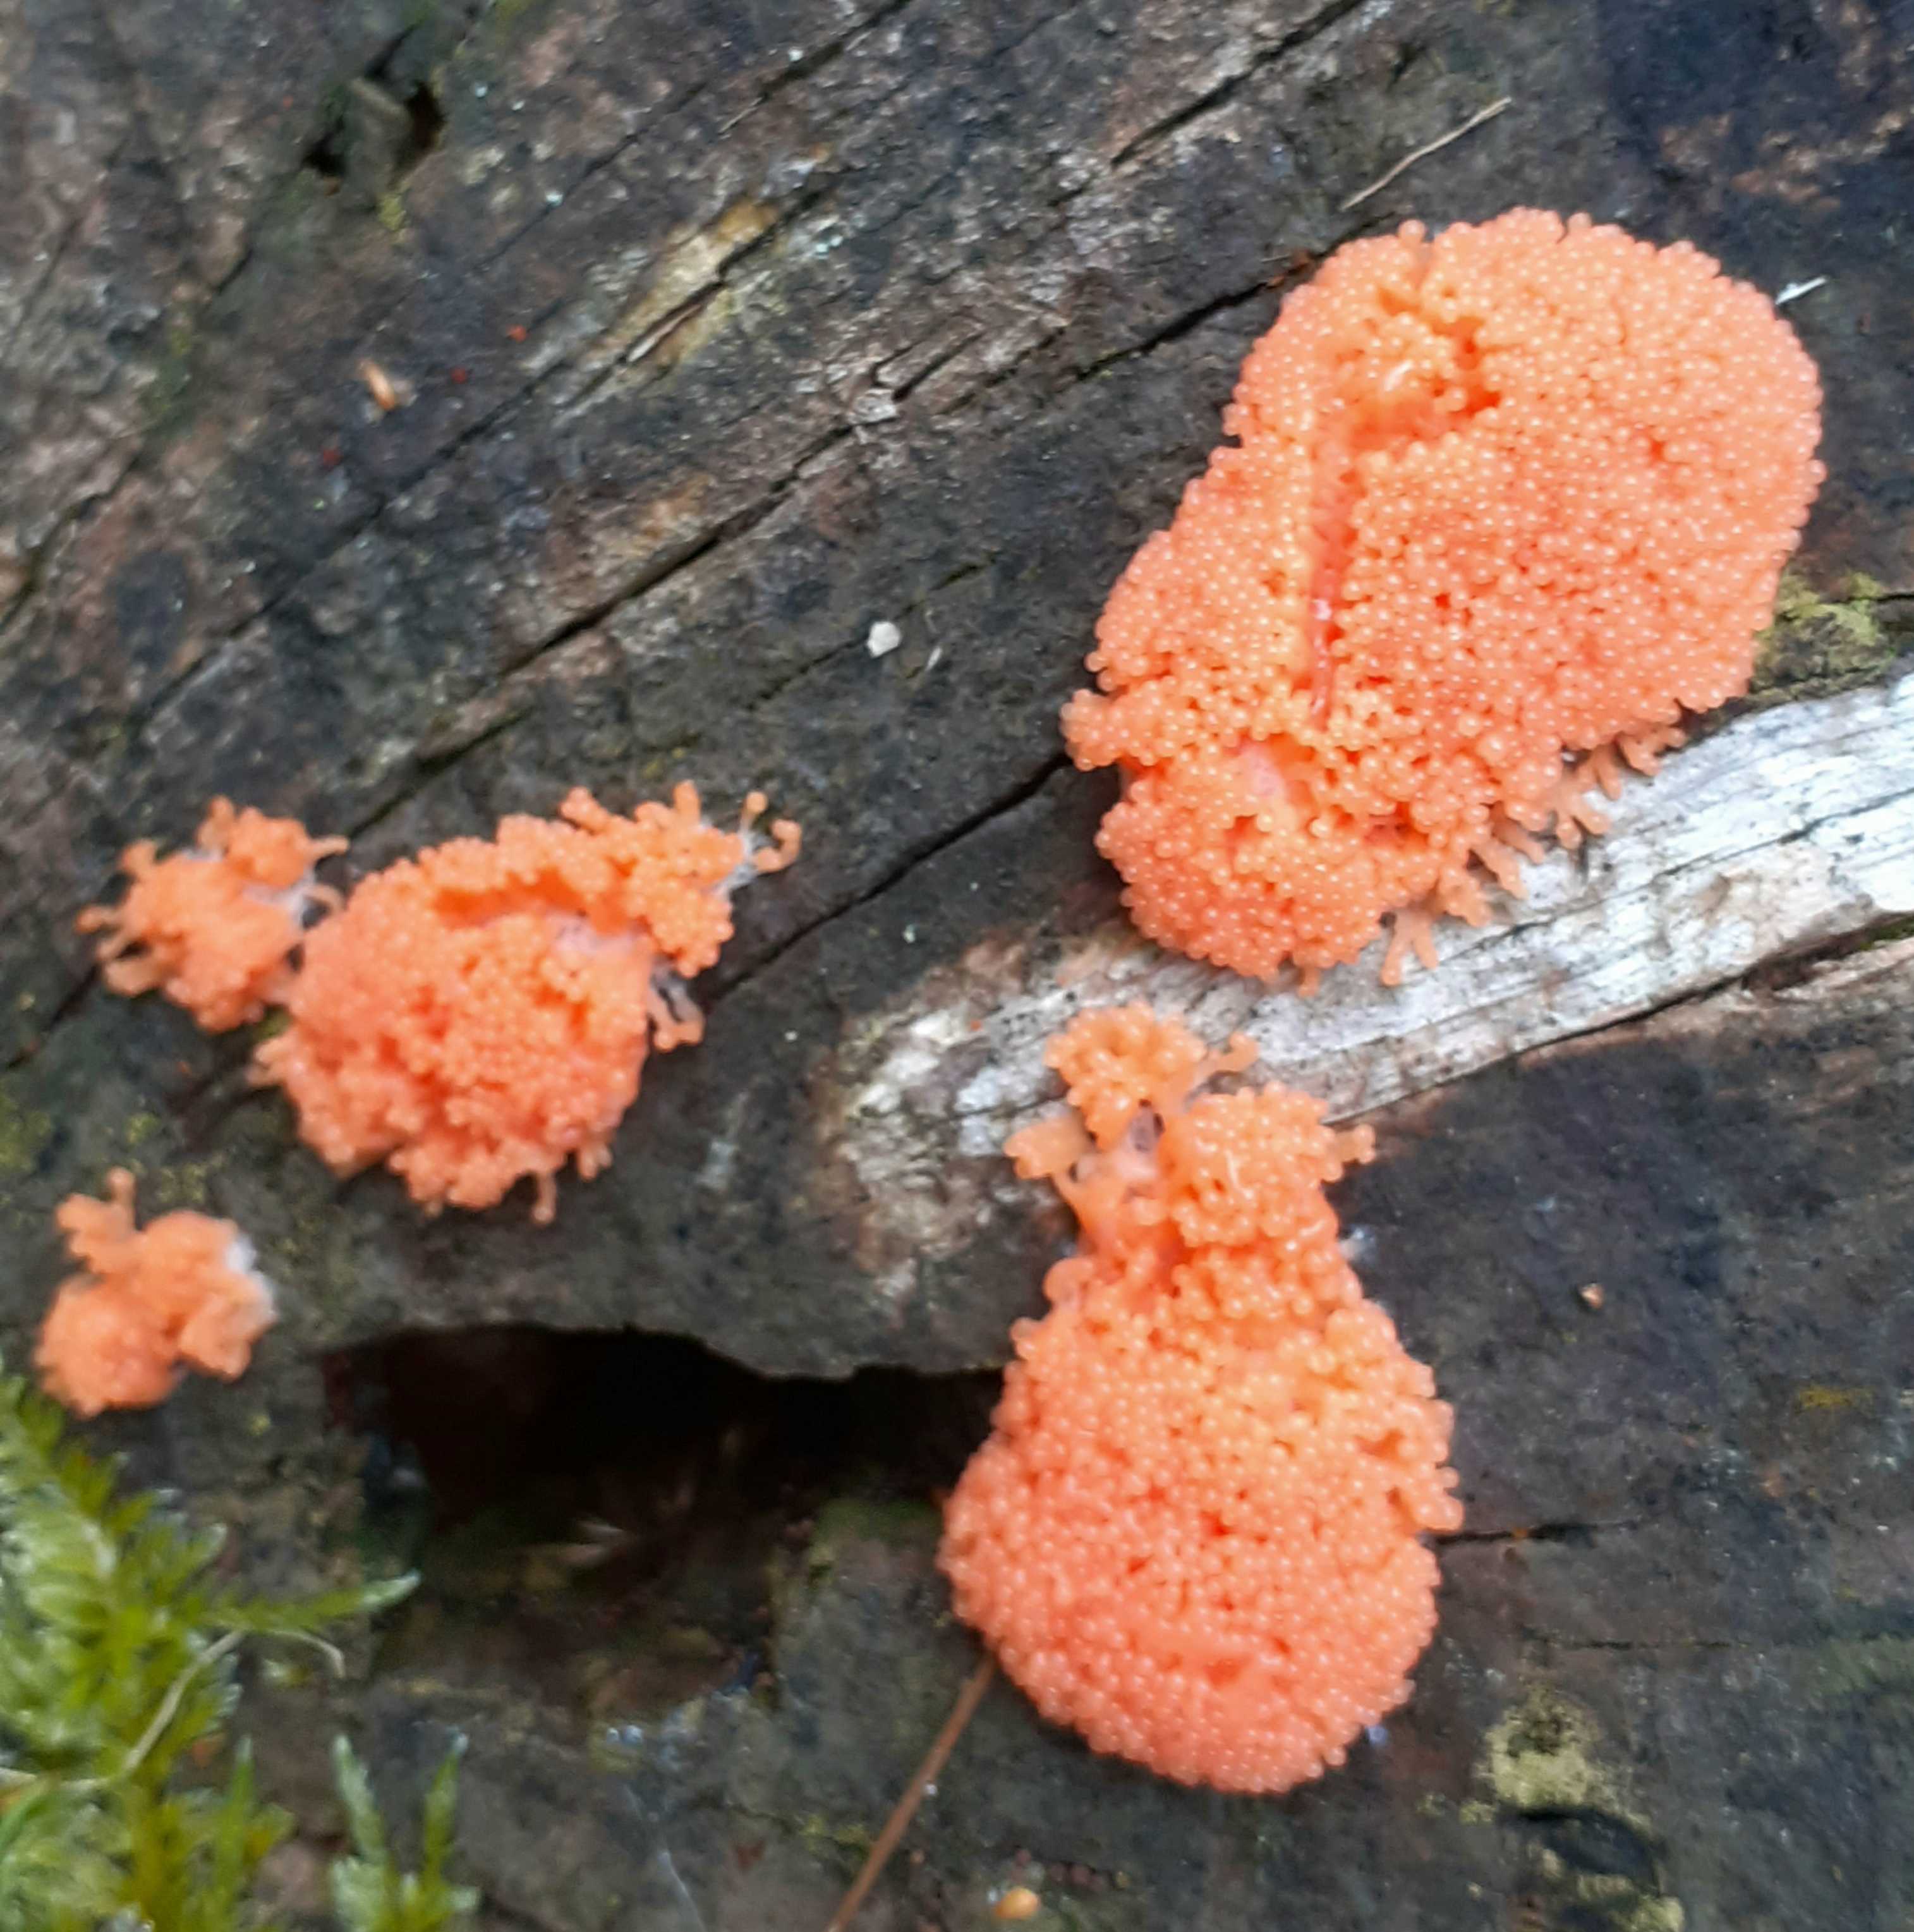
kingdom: Protozoa
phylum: Mycetozoa
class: Myxomycetes
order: Cribrariales
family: Tubiferaceae
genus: Tubifera
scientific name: Tubifera ferruginosa
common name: kanel-støvrør
